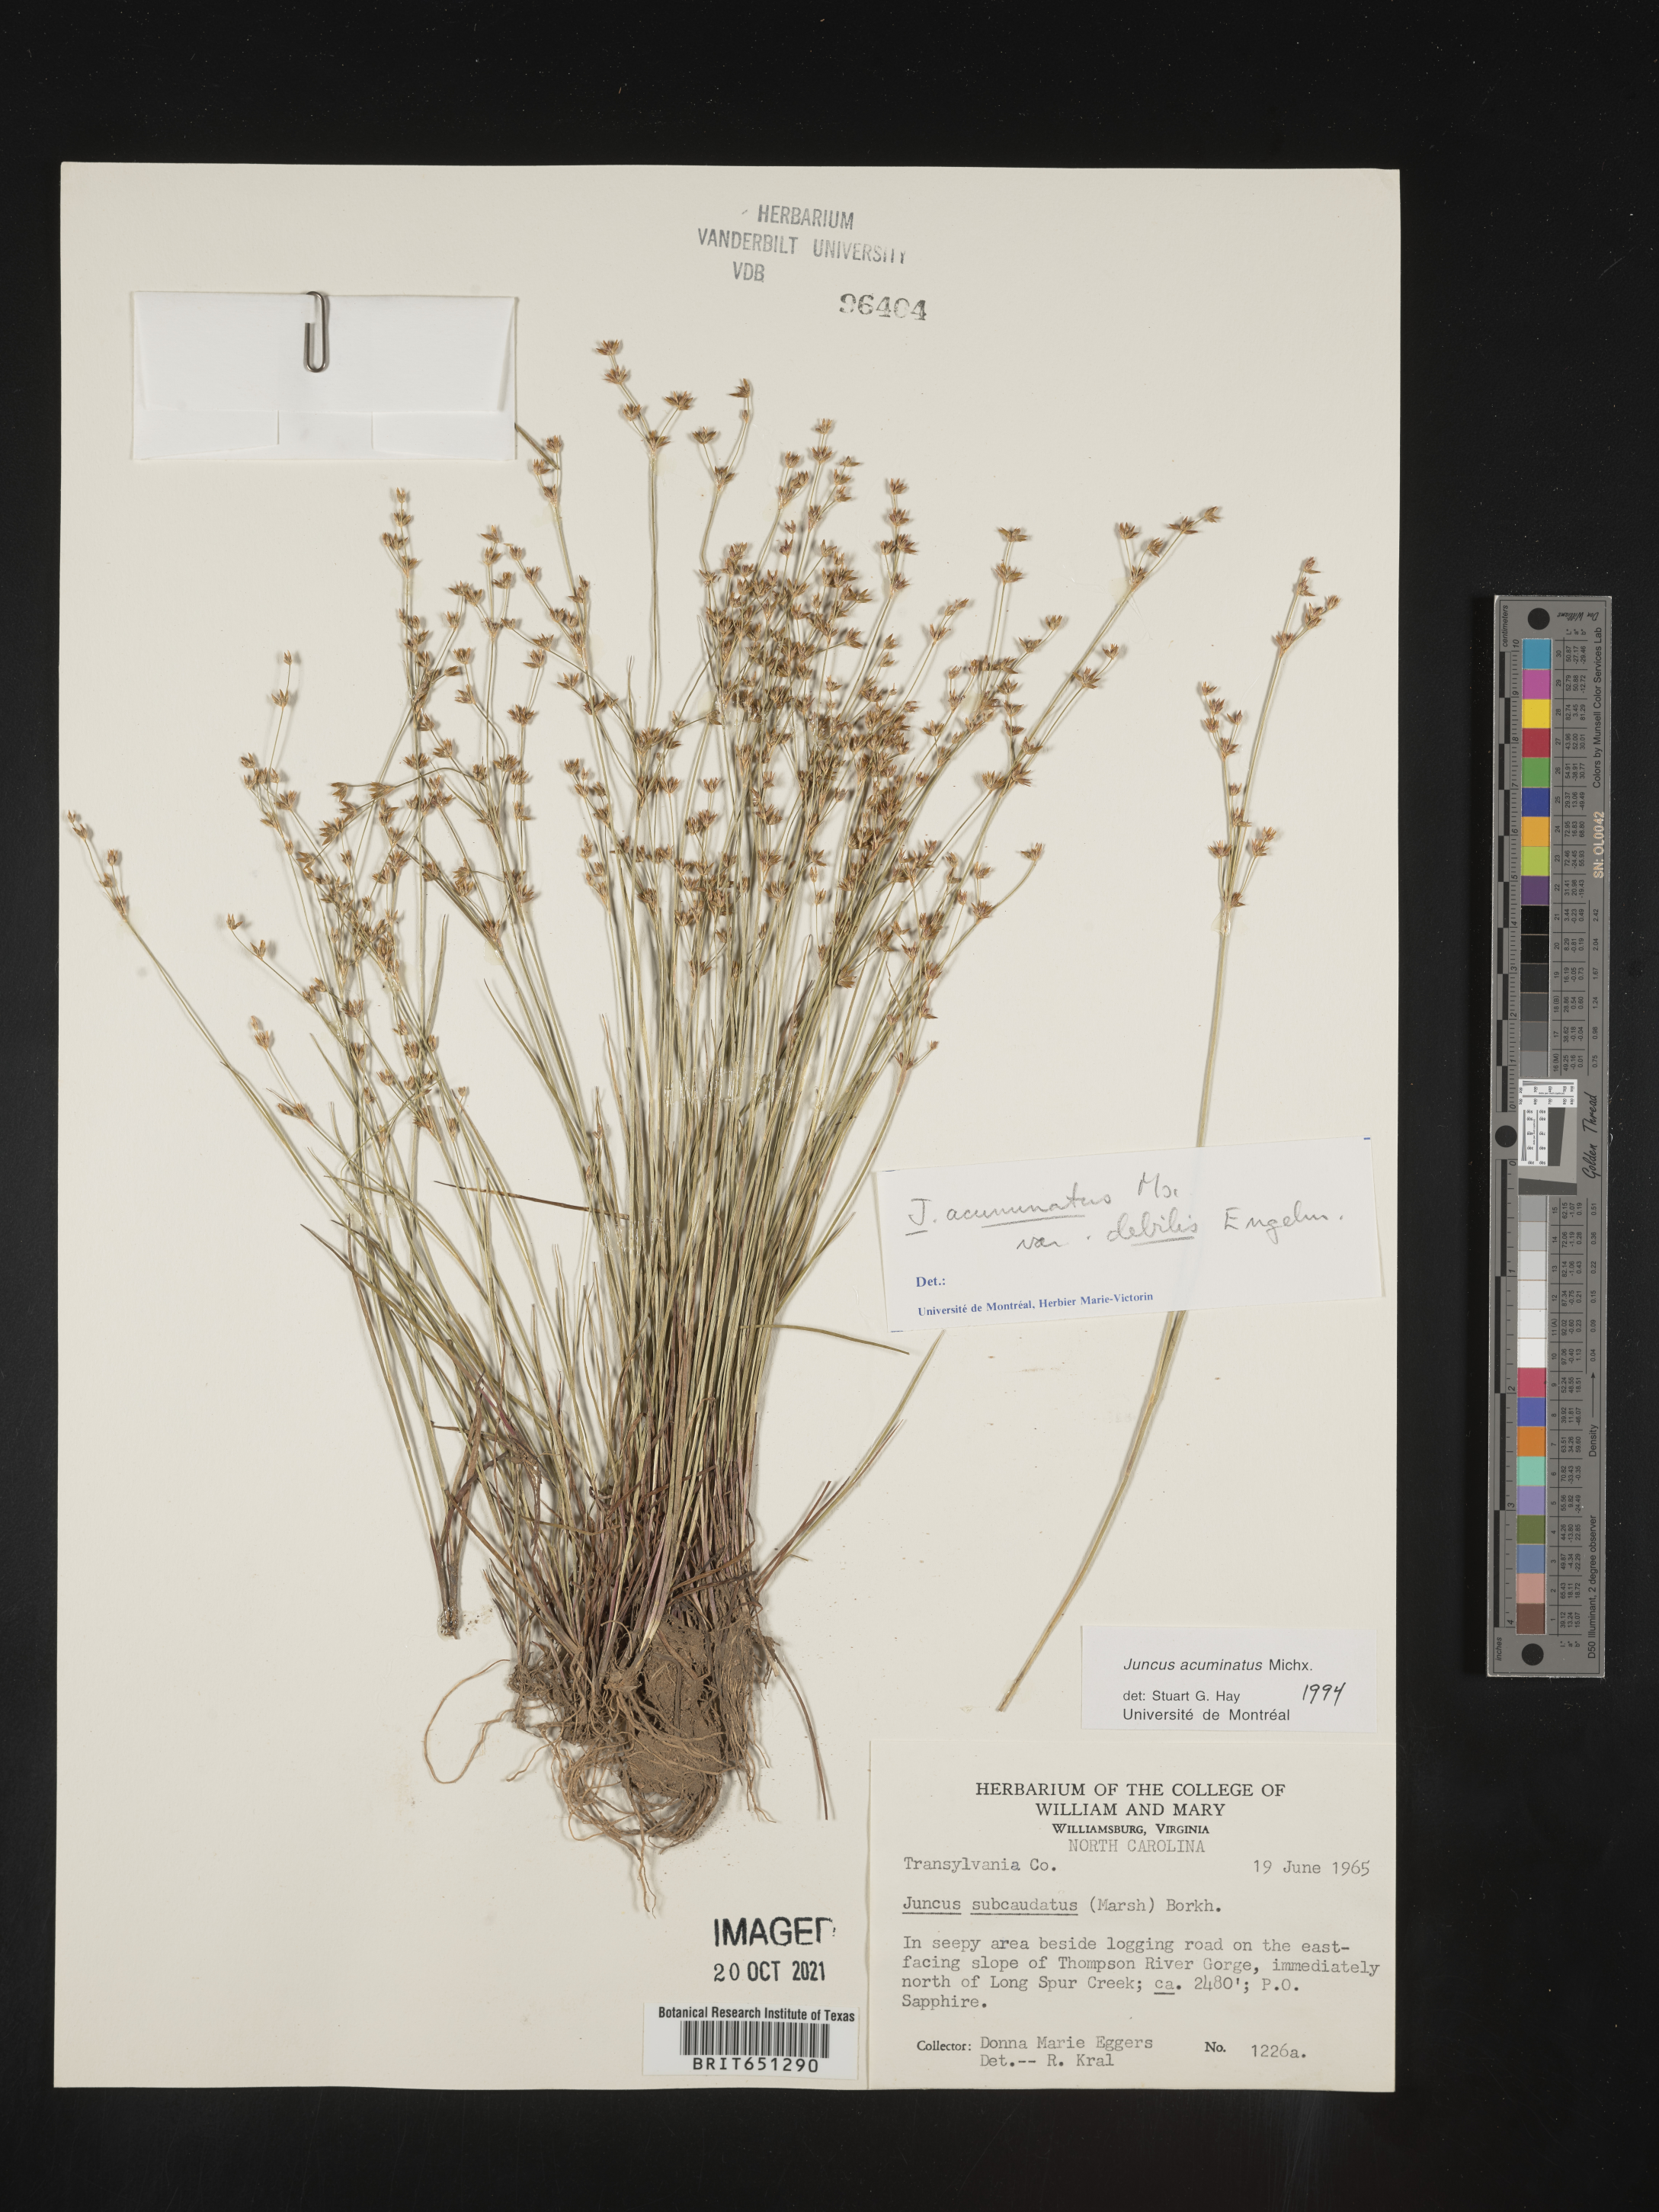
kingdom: Plantae
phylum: Tracheophyta
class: Liliopsida
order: Poales
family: Juncaceae
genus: Juncus
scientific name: Juncus debilis
